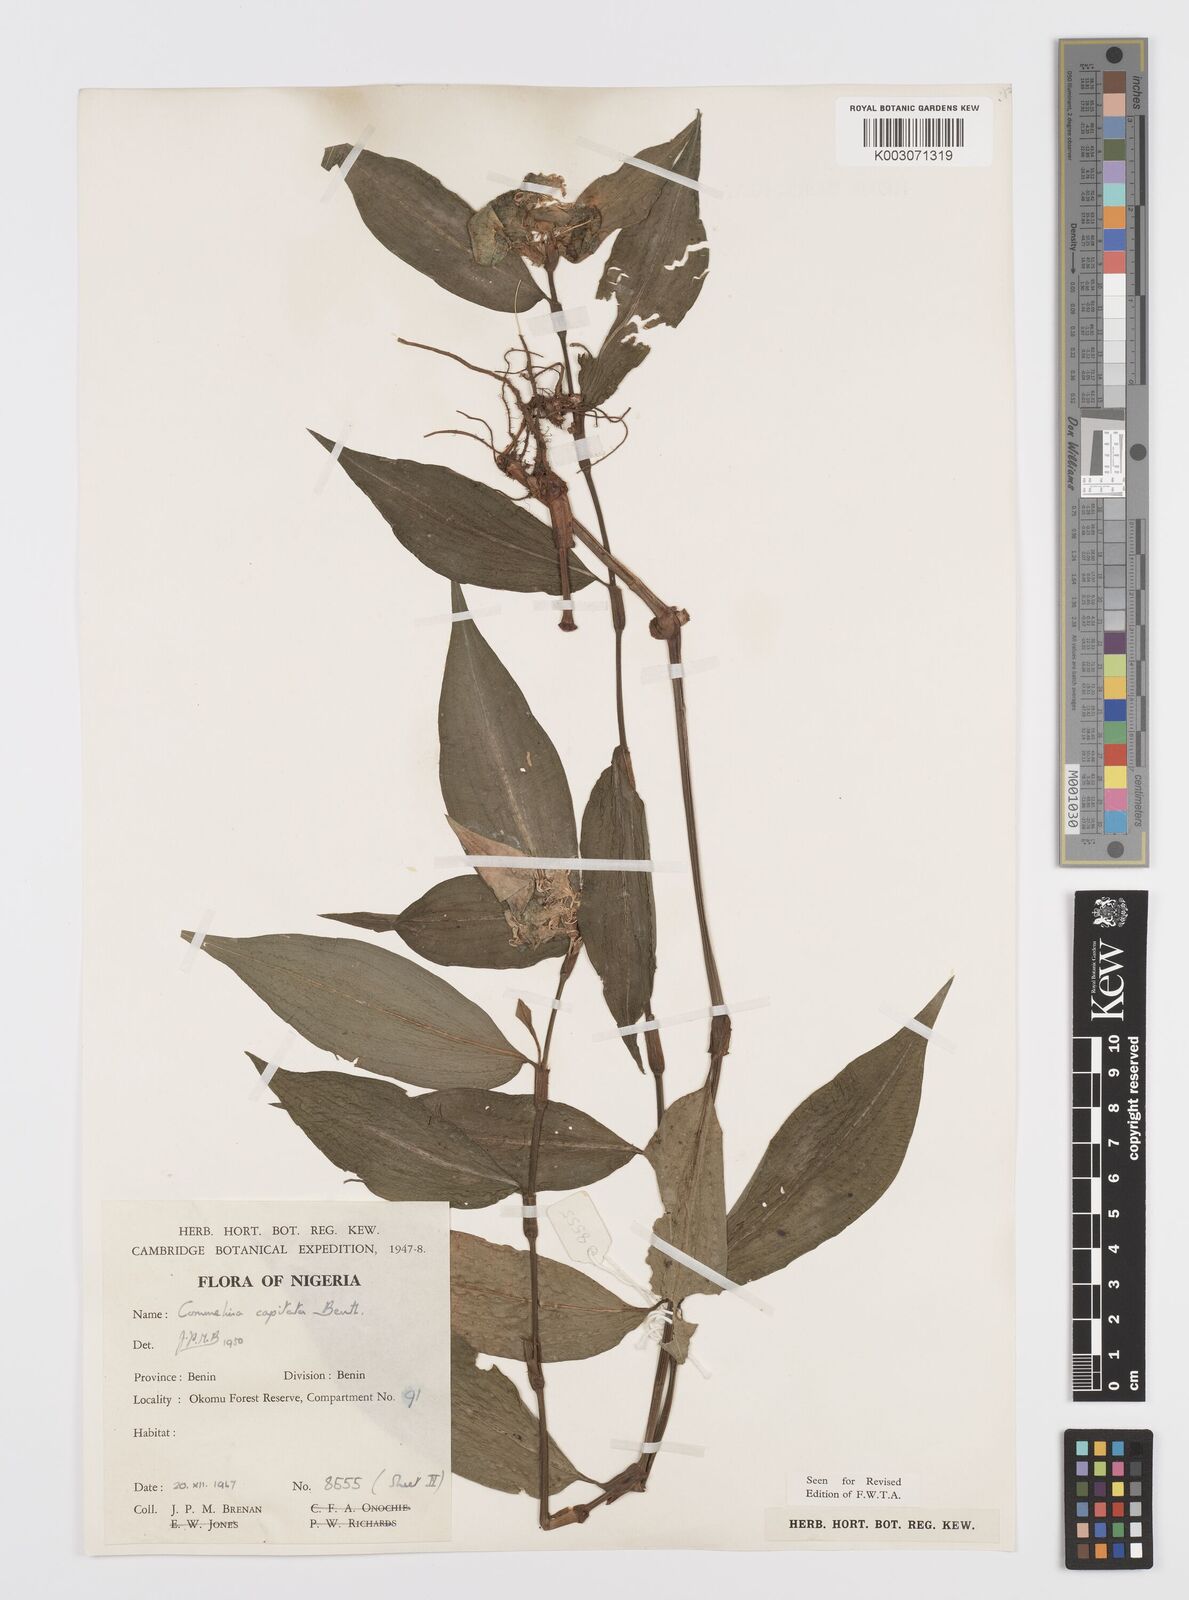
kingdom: Plantae
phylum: Tracheophyta
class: Liliopsida
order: Commelinales
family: Commelinaceae
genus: Commelina
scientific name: Commelina capitata
